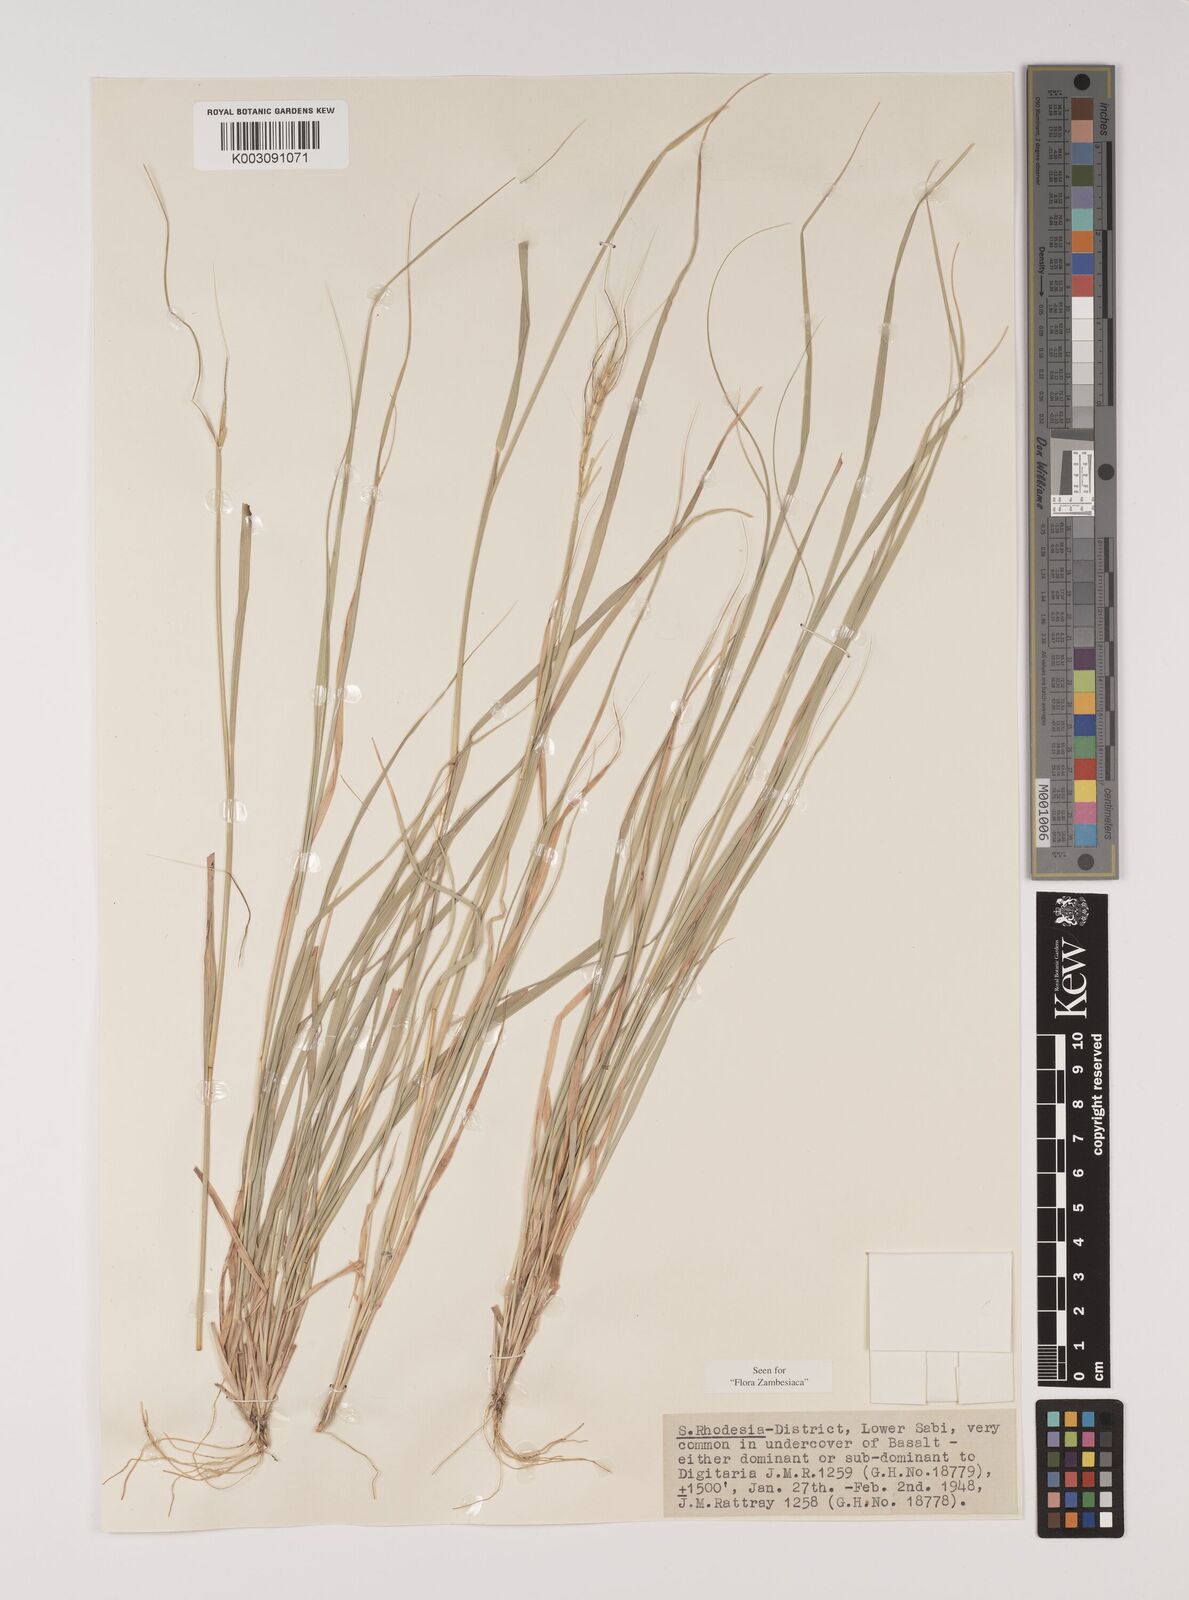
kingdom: Plantae
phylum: Tracheophyta
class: Liliopsida
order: Poales
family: Poaceae
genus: Sehima
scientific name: Sehima ischaemoides
